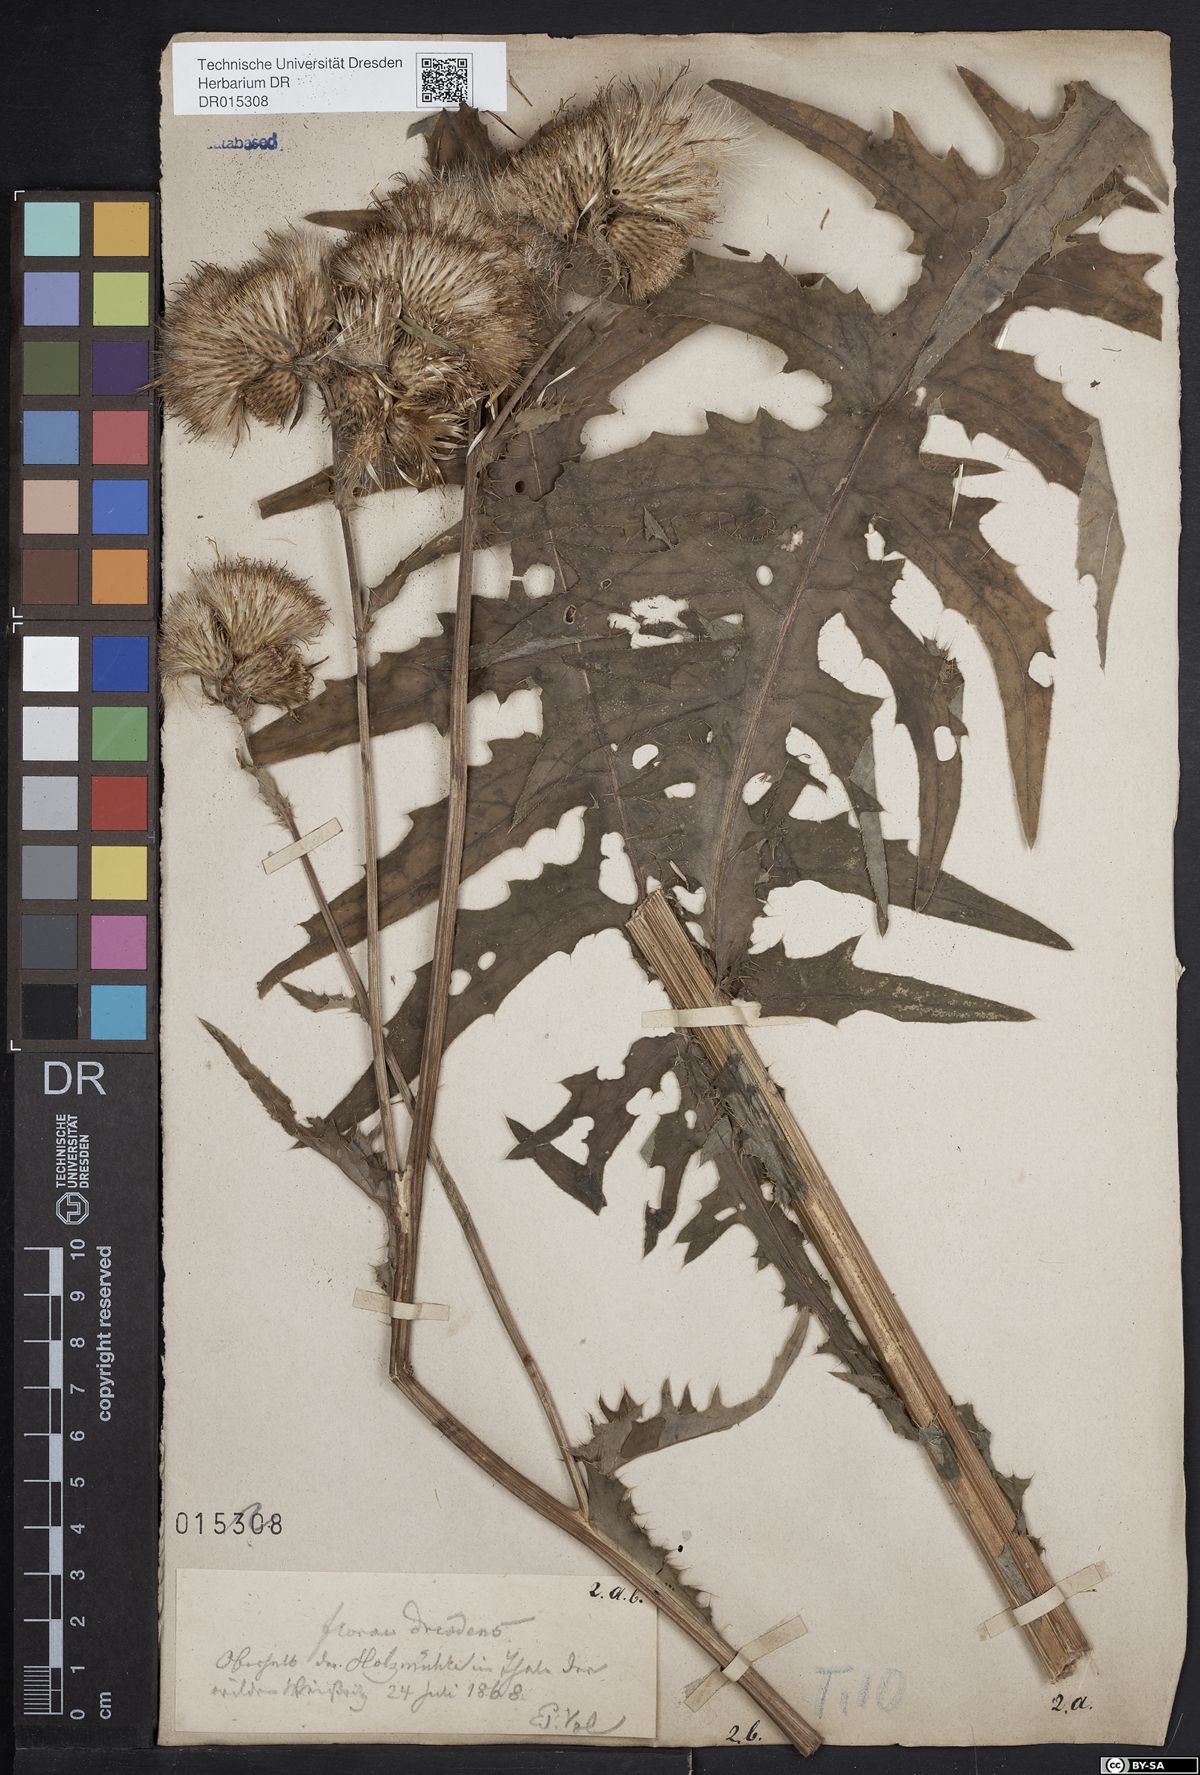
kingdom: Plantae
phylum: Tracheophyta
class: Magnoliopsida
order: Asterales
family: Asteraceae
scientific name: Asteraceae
